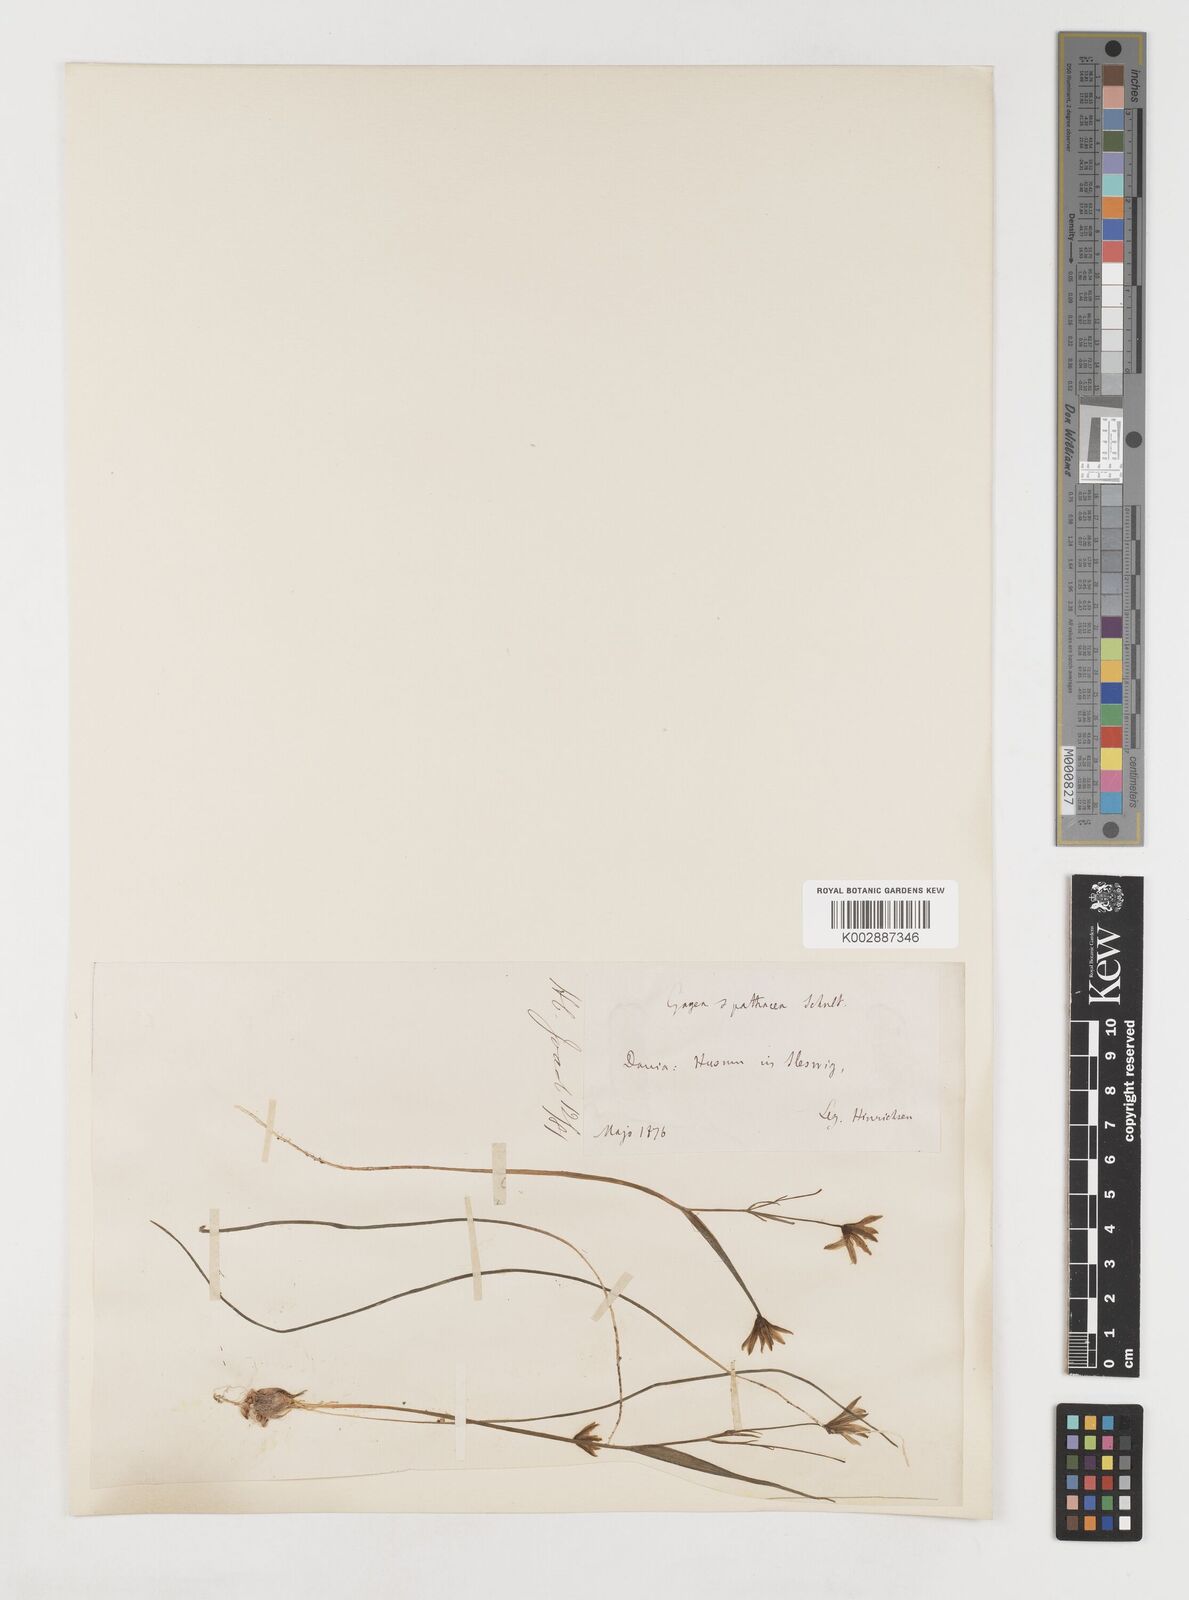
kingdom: Plantae
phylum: Tracheophyta
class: Liliopsida
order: Liliales
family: Liliaceae
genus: Gagea
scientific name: Gagea spathacea
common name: Belgian gagea
